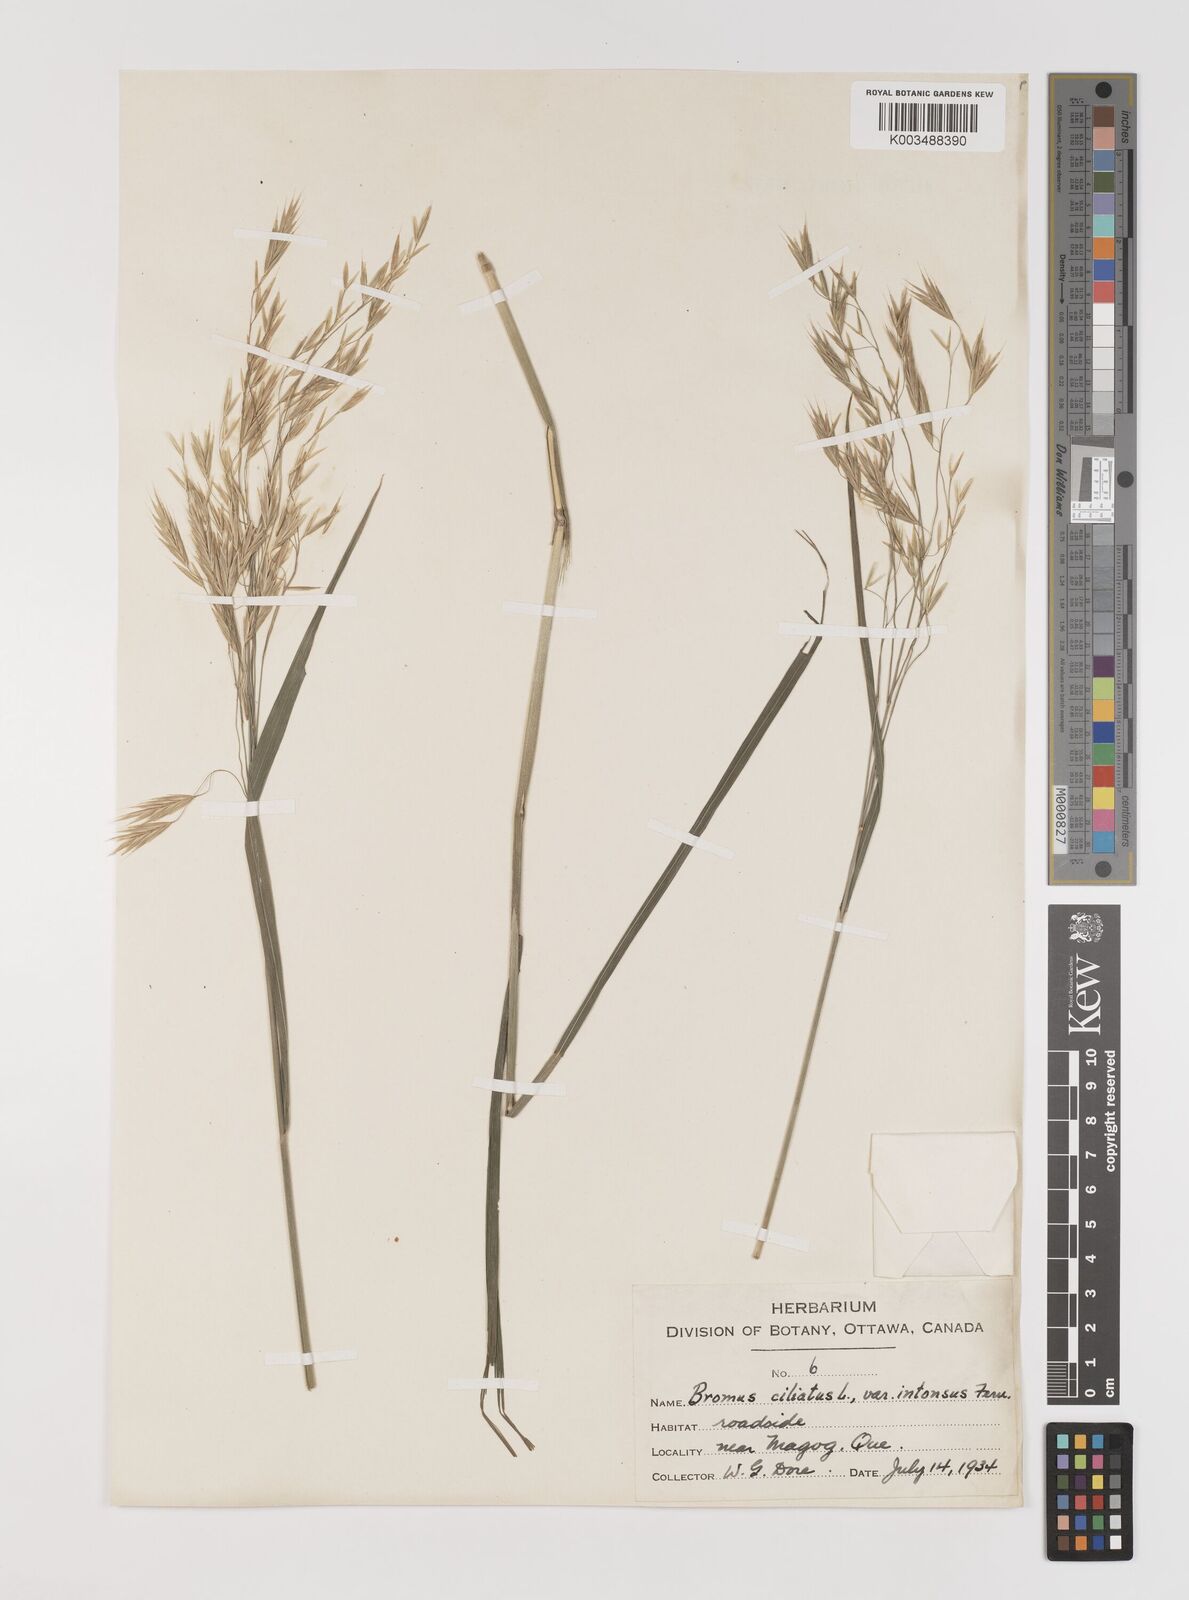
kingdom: Plantae
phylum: Tracheophyta
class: Liliopsida
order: Poales
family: Poaceae
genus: Bromus
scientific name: Bromus ciliatus
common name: Fringe brome
